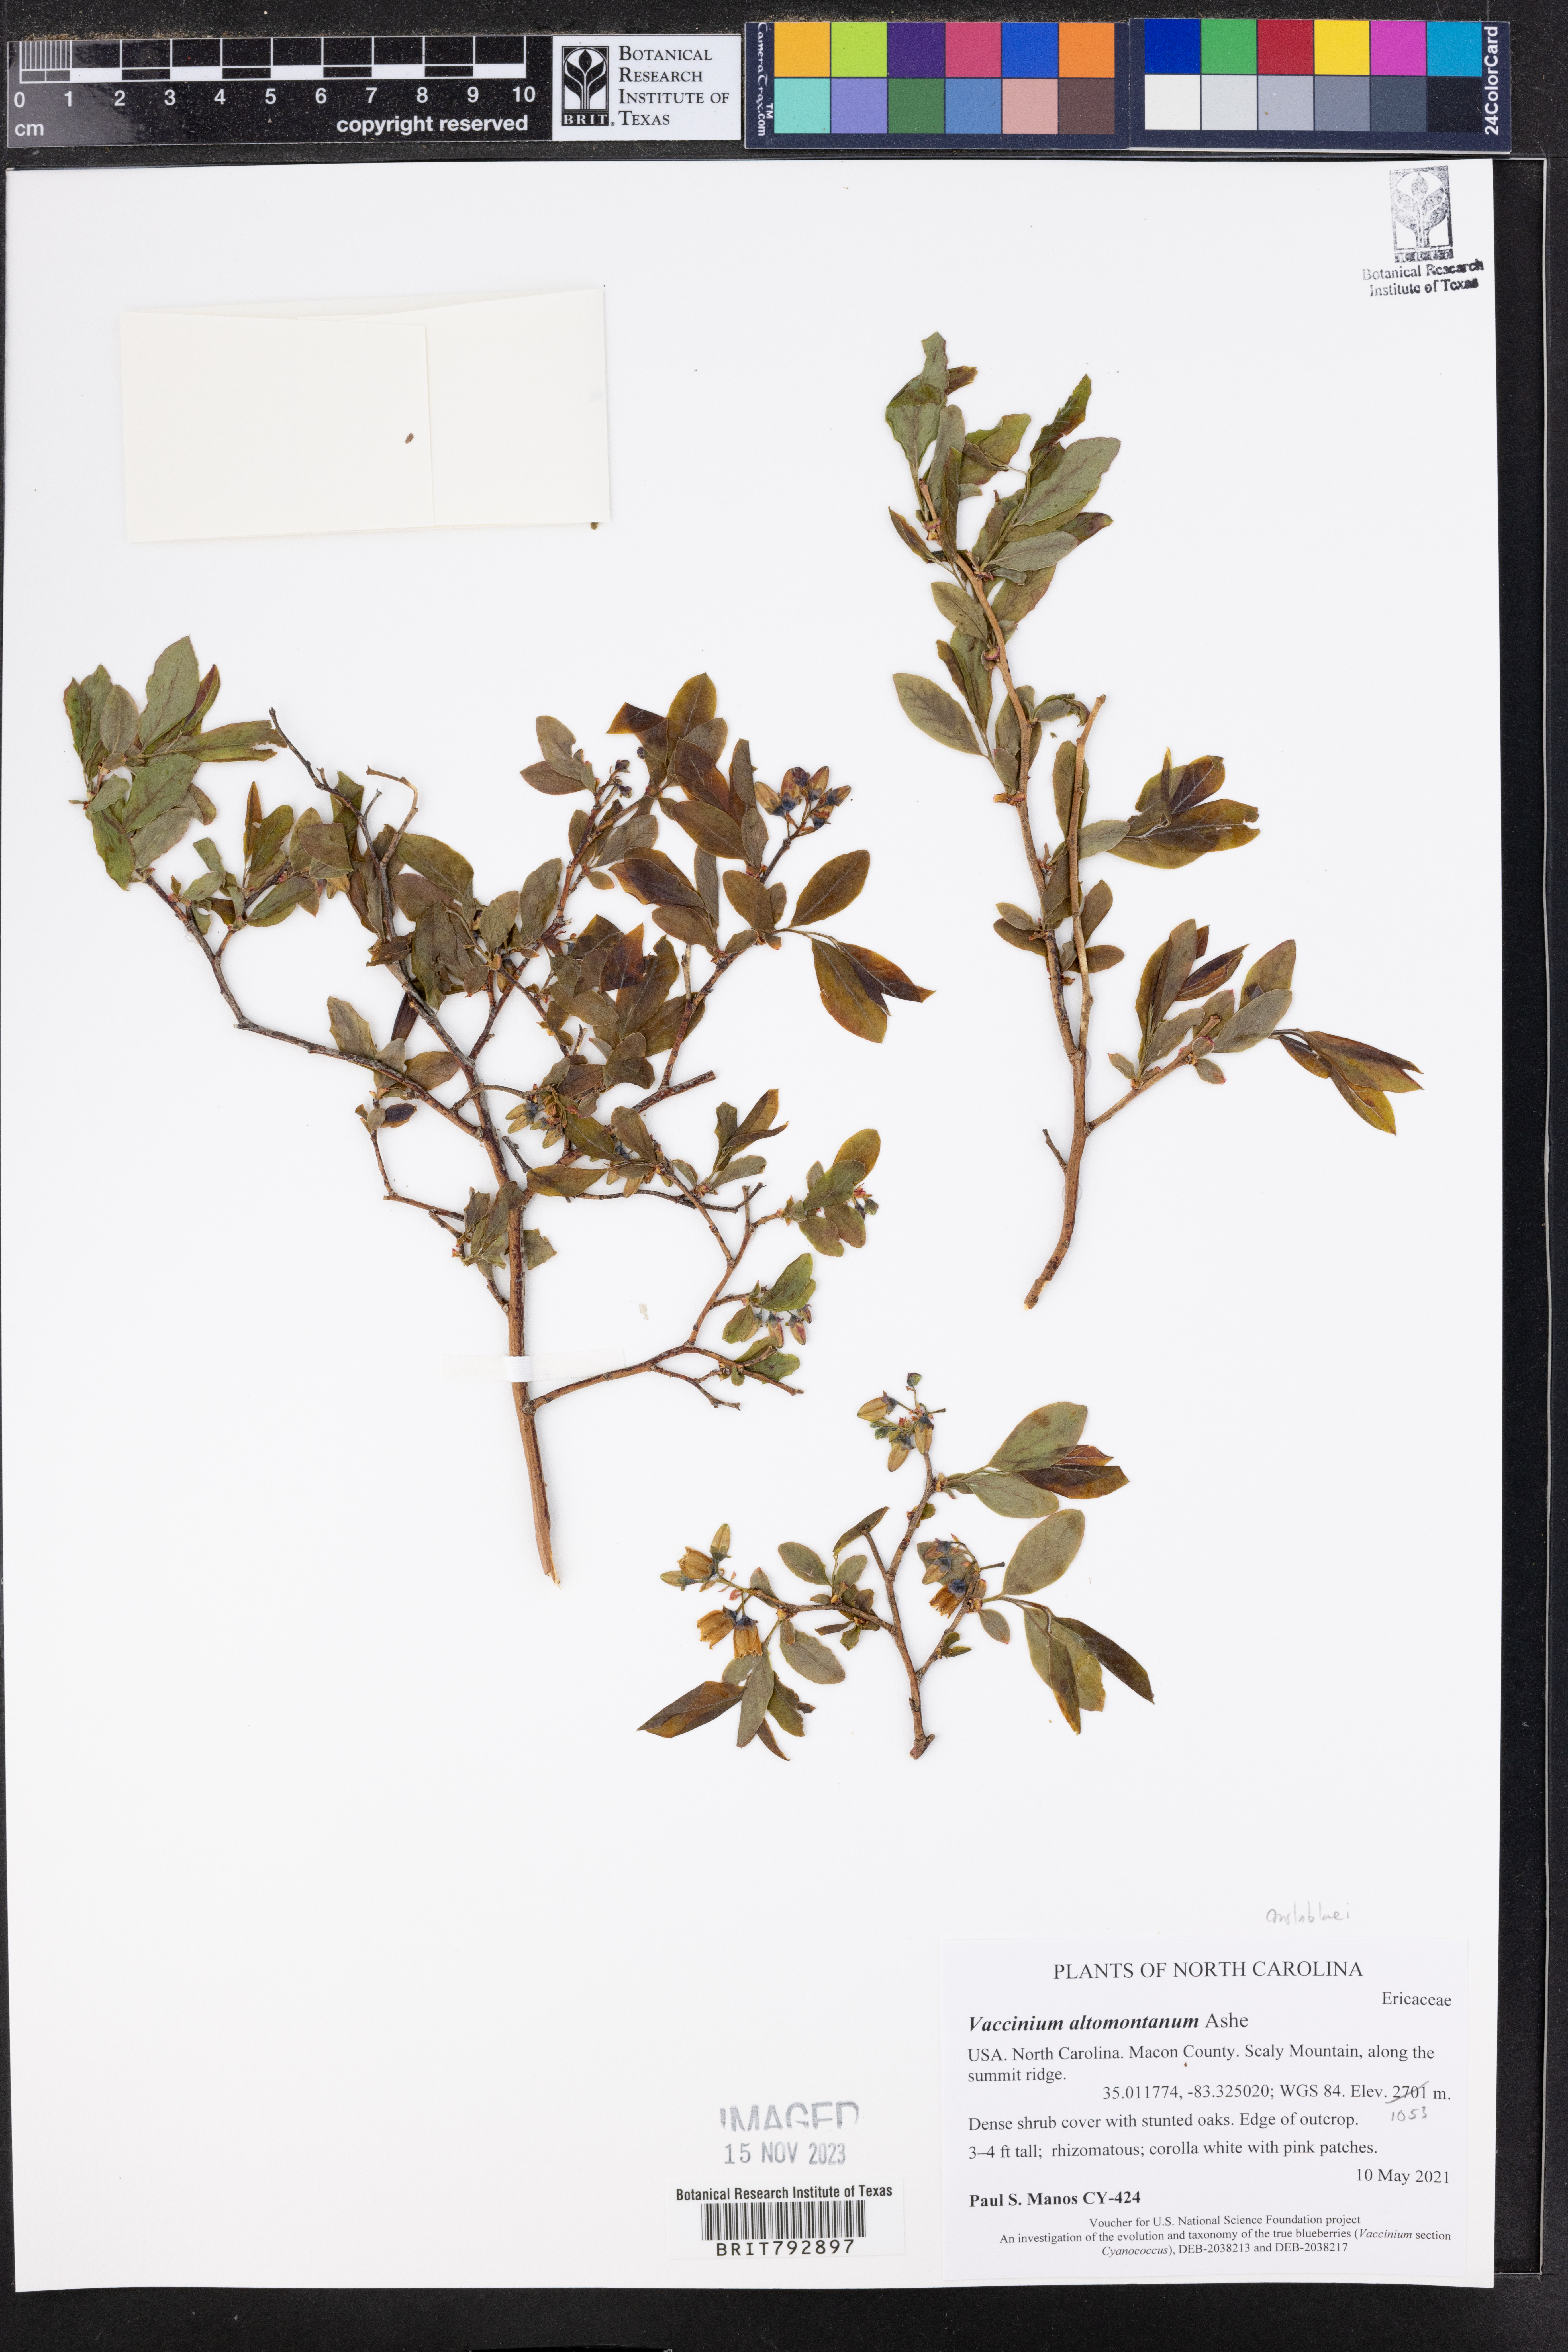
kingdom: Plantae
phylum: Tracheophyta
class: Magnoliopsida
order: Ericales
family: Ericaceae
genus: Vaccinium
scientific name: Vaccinium pallidum
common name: Blue ridge blueberry
